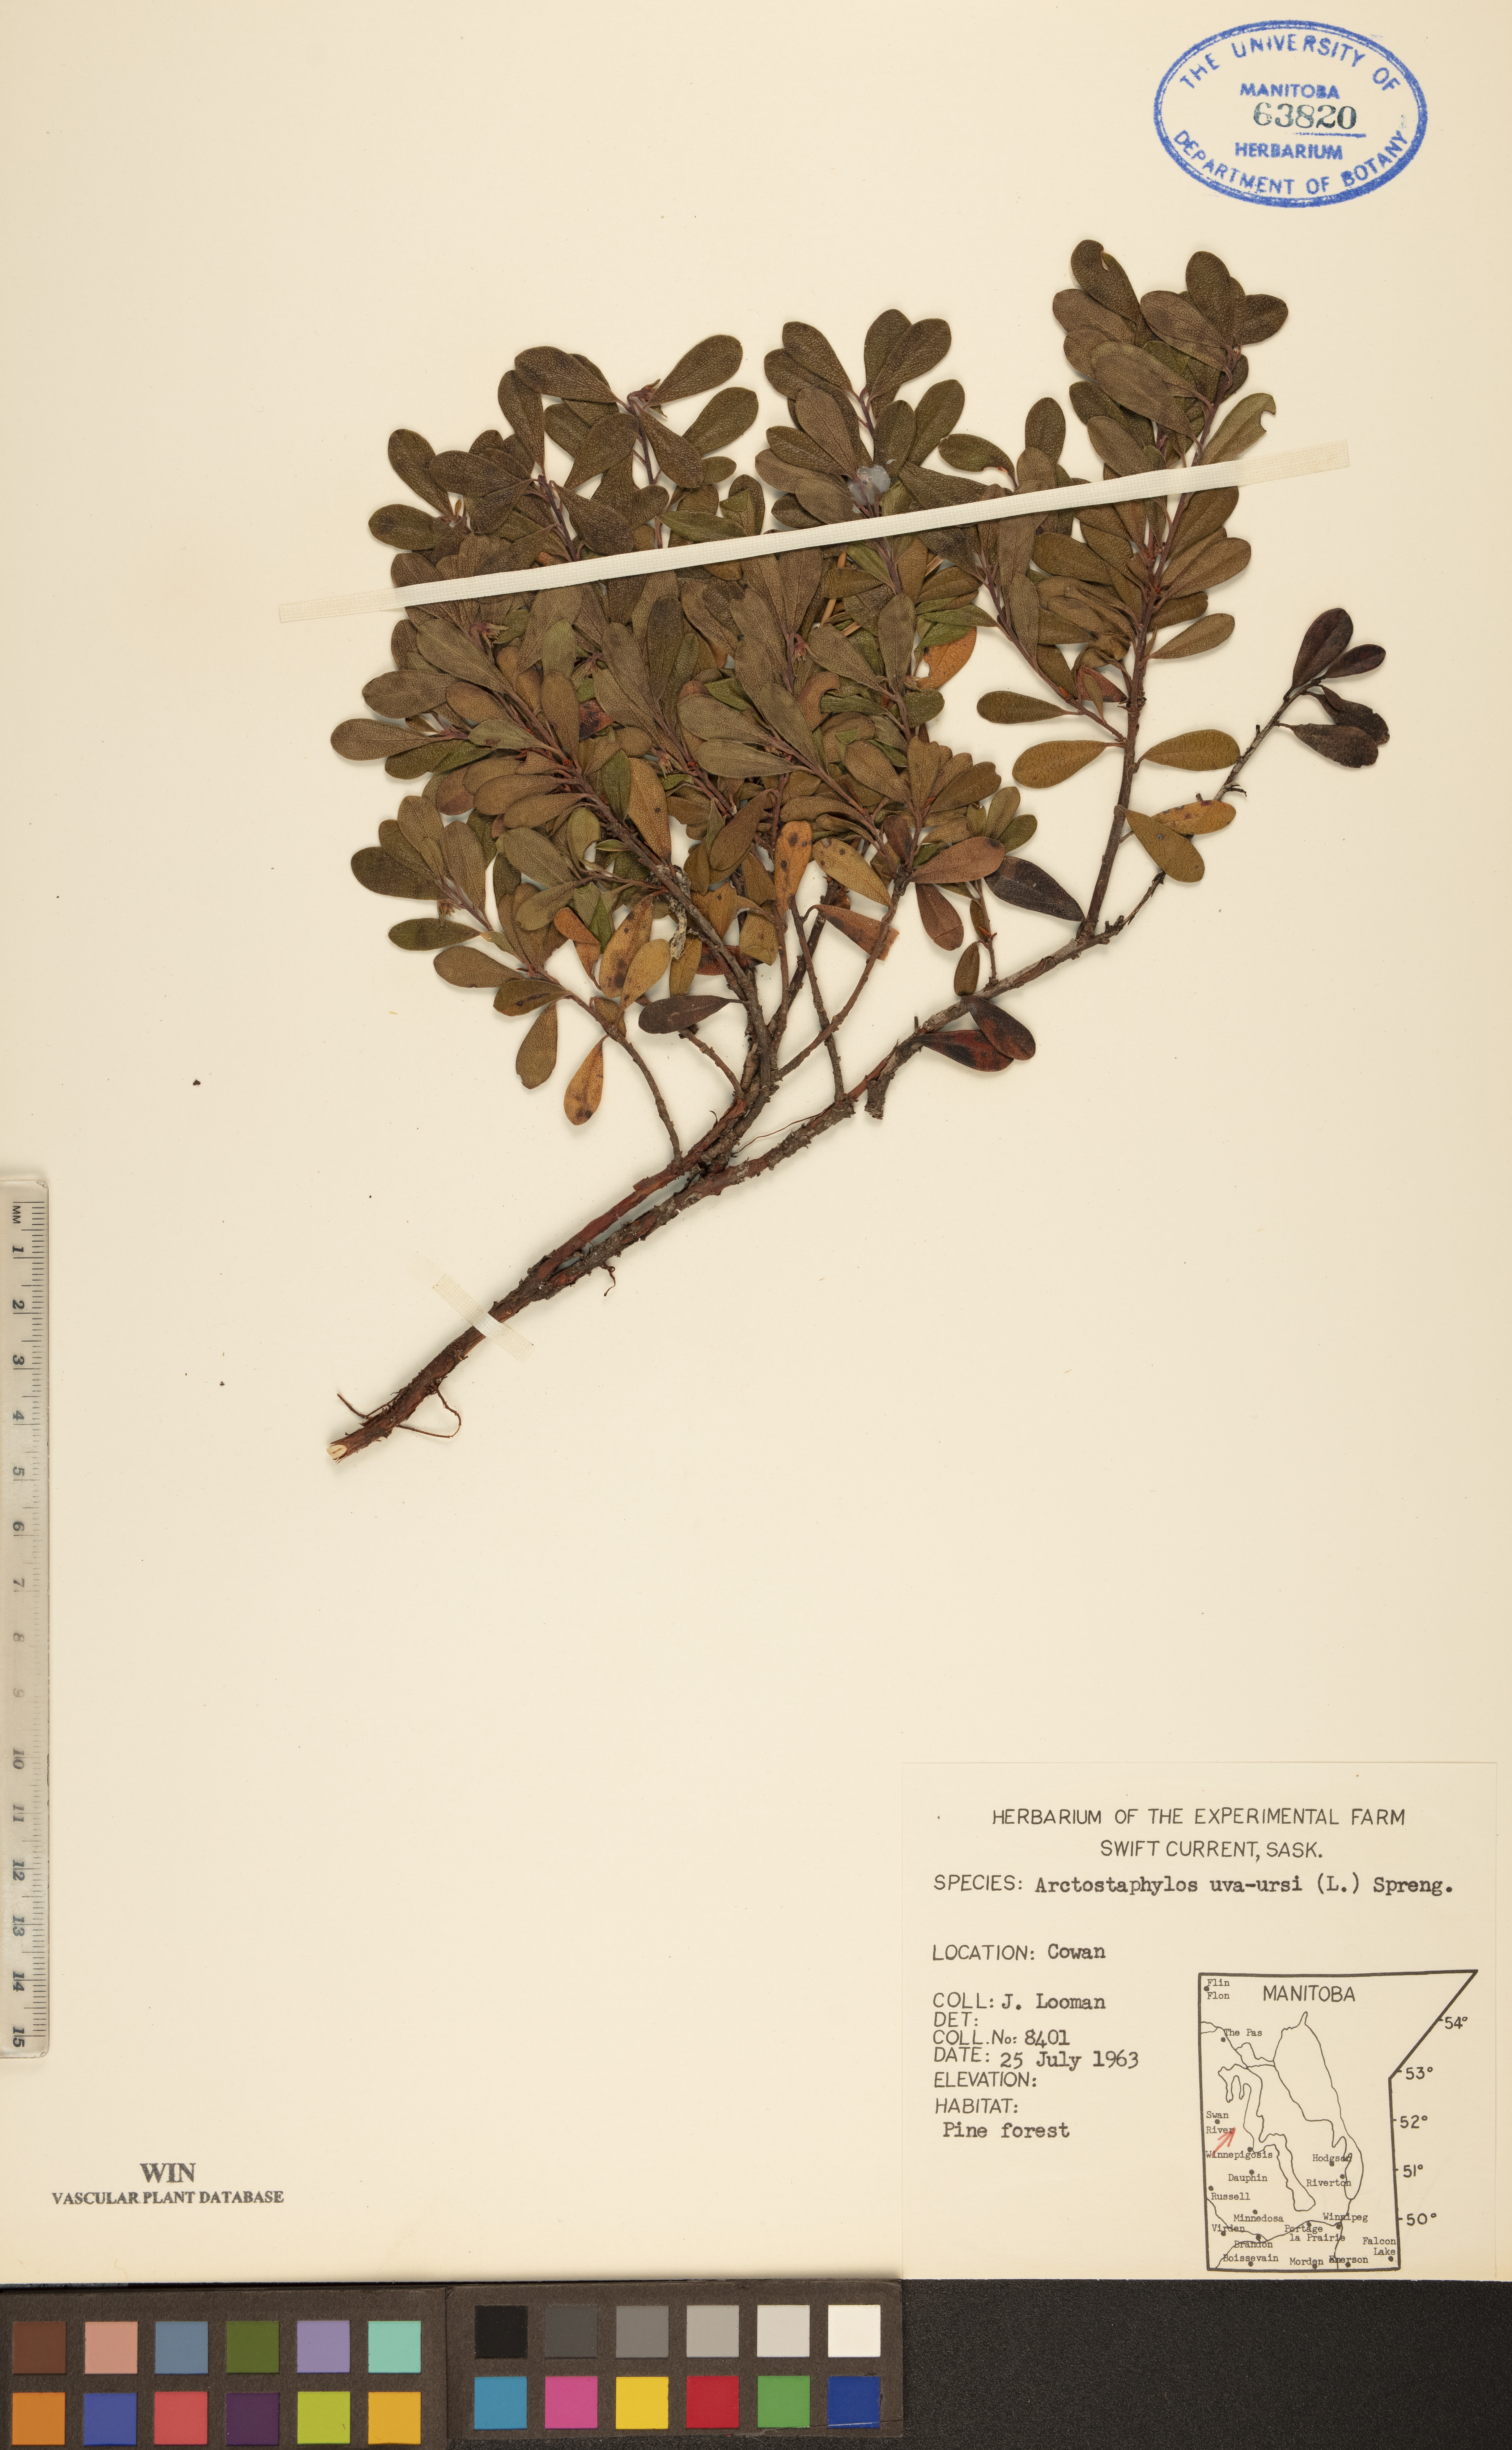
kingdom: Plantae
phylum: Tracheophyta
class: Magnoliopsida
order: Ericales
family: Ericaceae
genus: Arctostaphylos
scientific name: Arctostaphylos uva-ursi
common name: Bearberry
